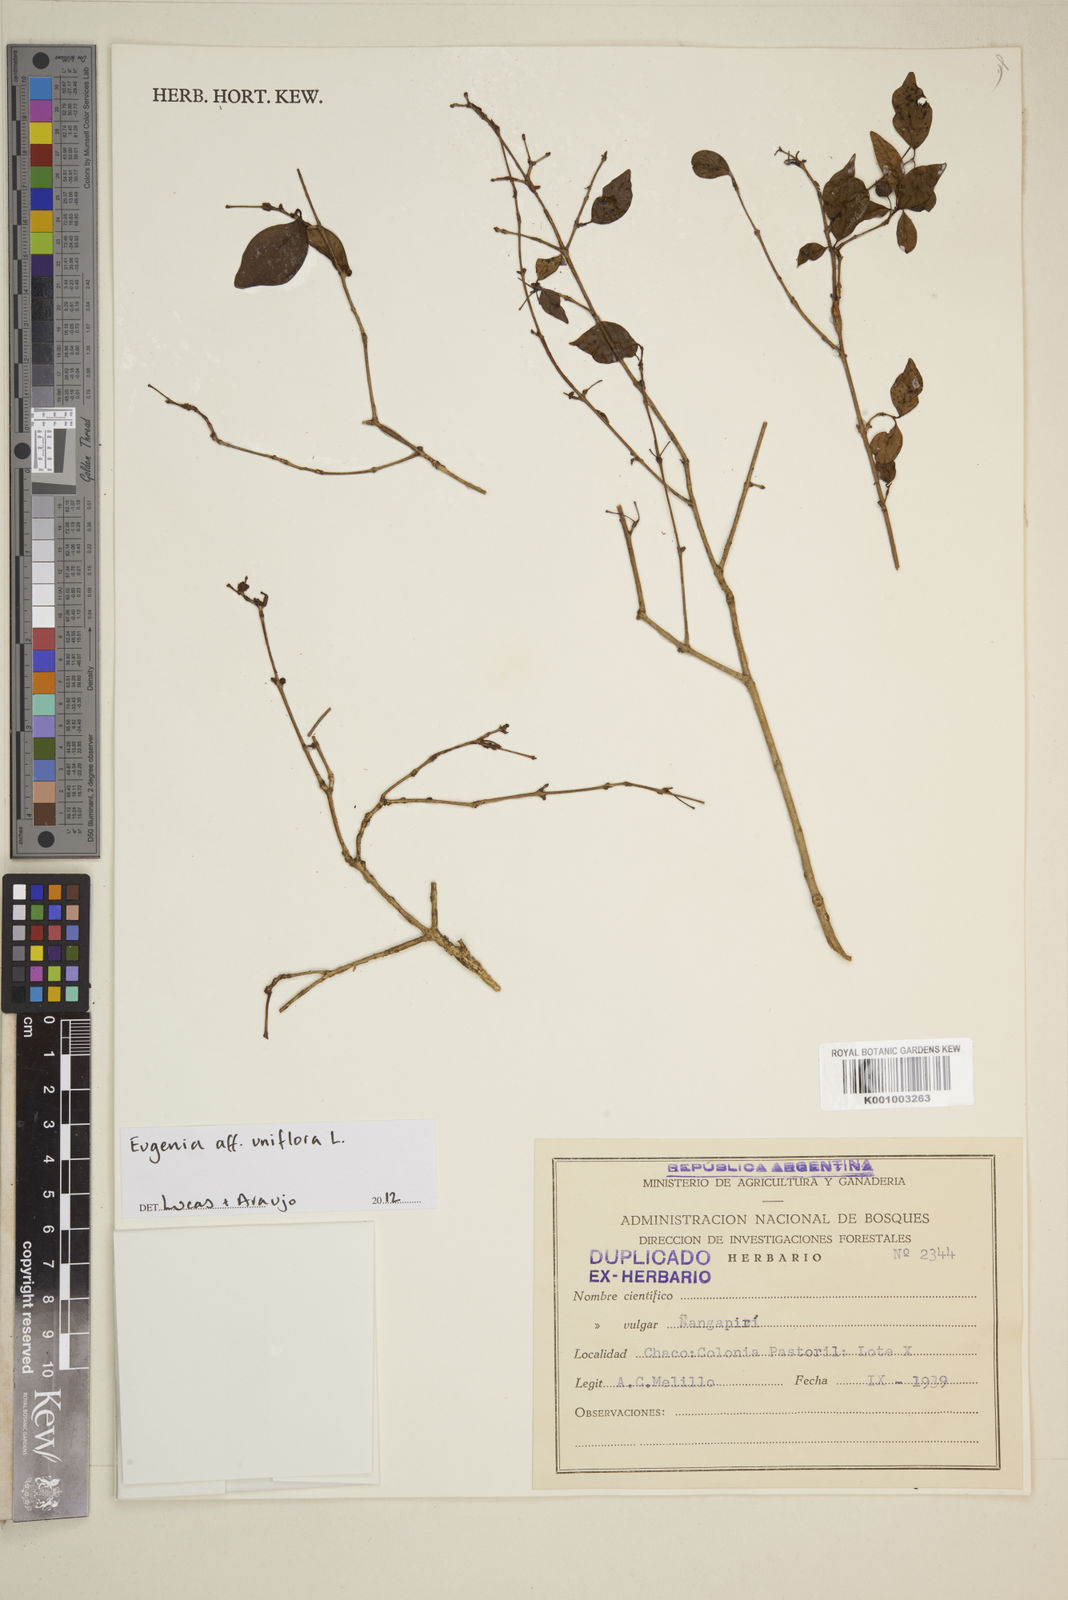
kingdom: Plantae
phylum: Tracheophyta
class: Magnoliopsida
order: Myrtales
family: Myrtaceae
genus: Eugenia
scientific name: Eugenia uniflora
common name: Surinam cherry
